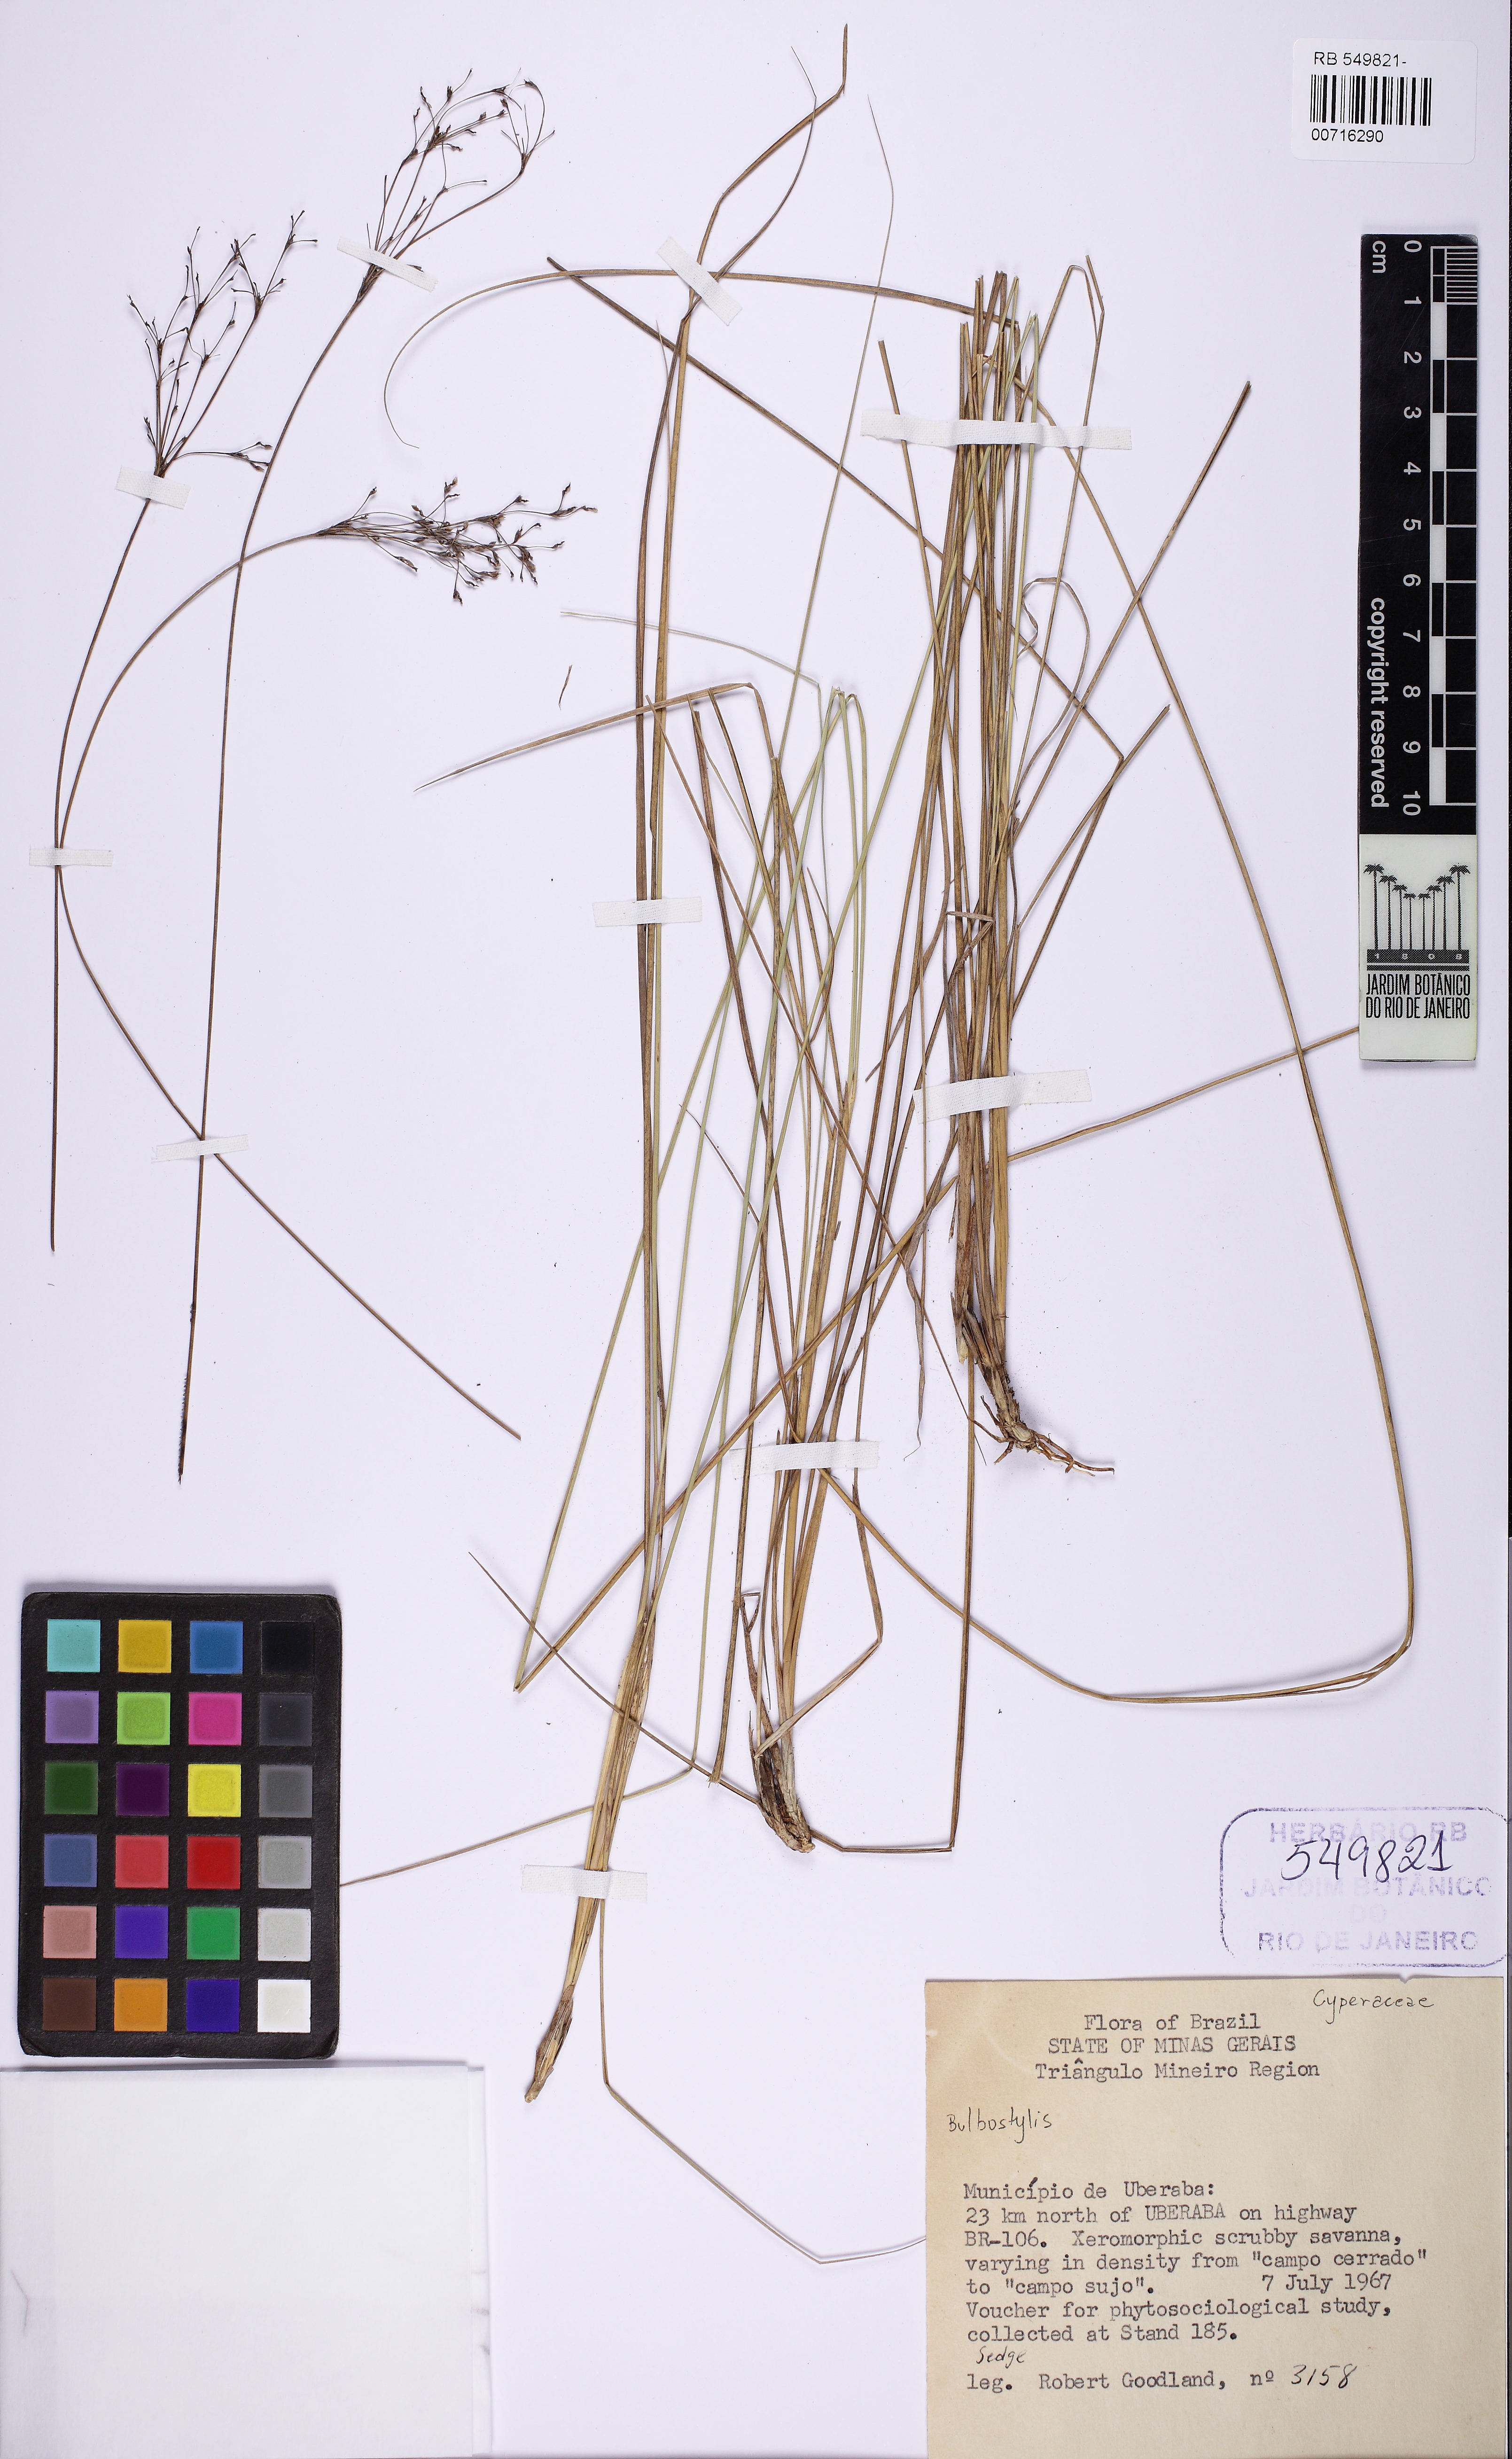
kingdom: Plantae
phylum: Tracheophyta
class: Liliopsida
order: Poales
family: Cyperaceae
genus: Bulbostylis
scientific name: Bulbostylis
